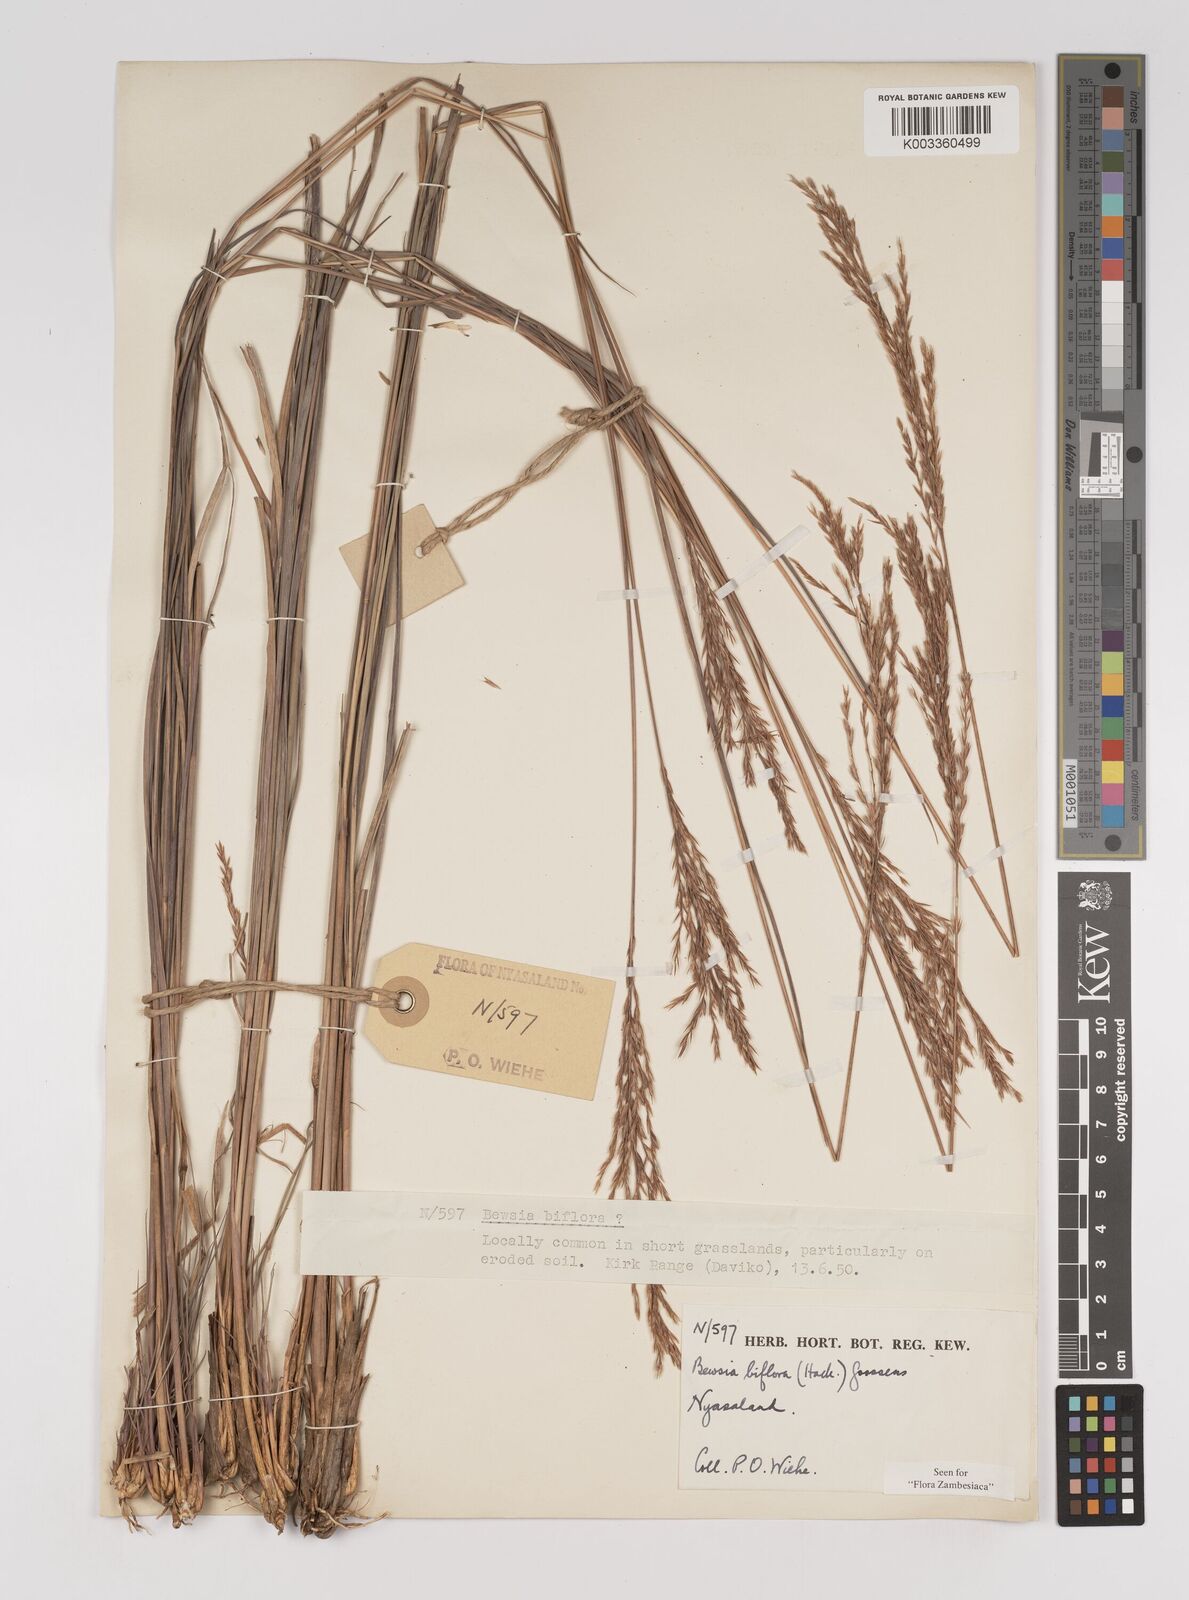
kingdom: Plantae
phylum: Tracheophyta
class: Liliopsida
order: Poales
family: Poaceae
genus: Bewsia
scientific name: Bewsia biflora
